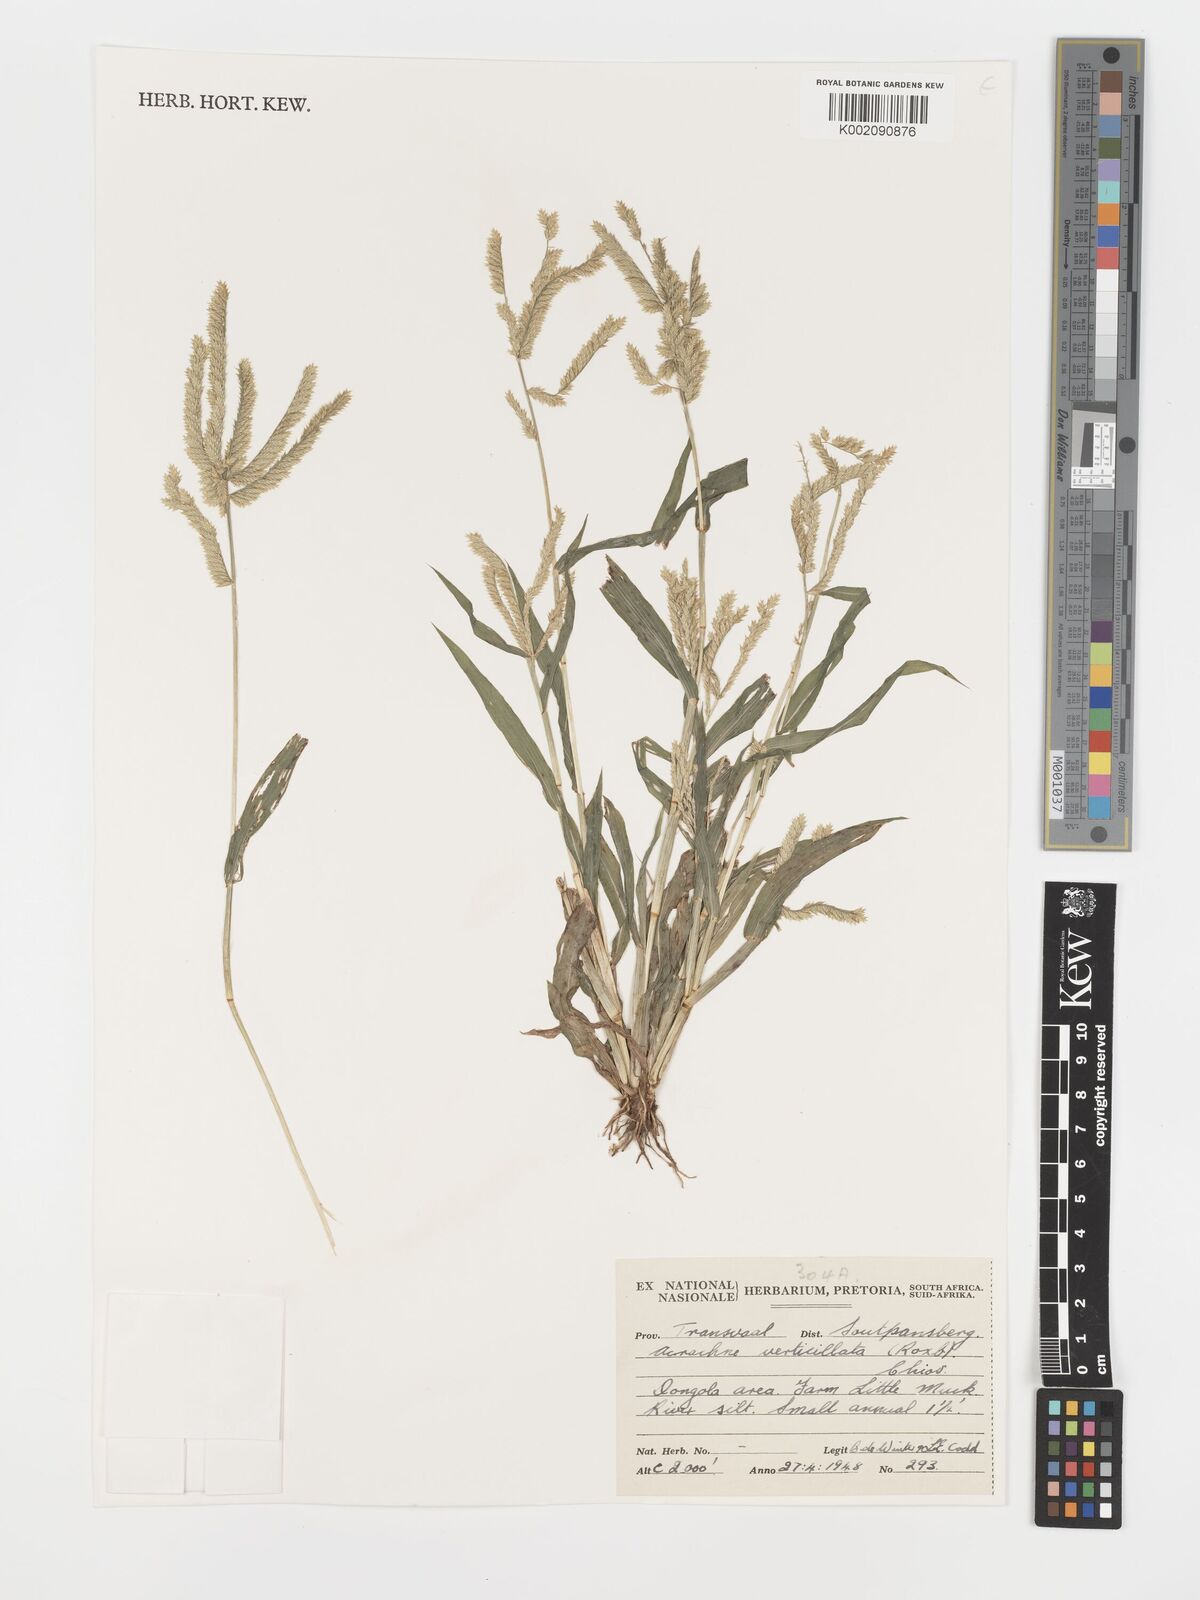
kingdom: Plantae
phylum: Tracheophyta
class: Liliopsida
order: Poales
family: Poaceae
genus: Acrachne
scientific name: Acrachne racemosa
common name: Goosegrass
